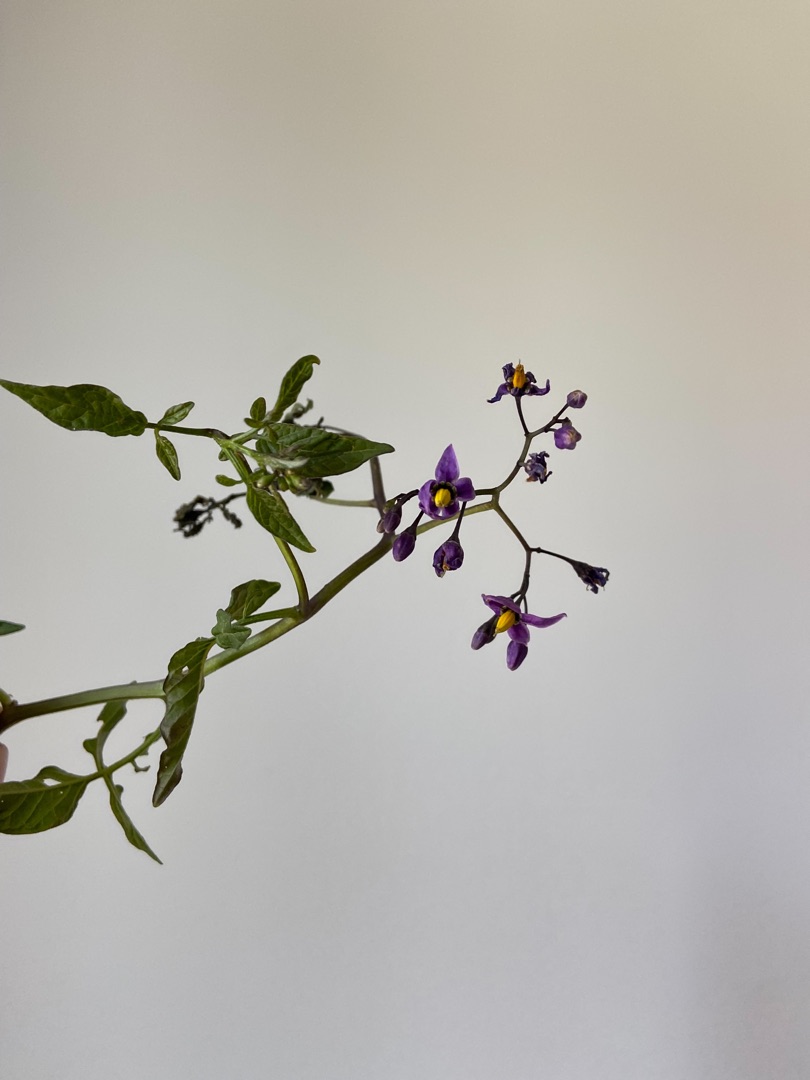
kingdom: Plantae
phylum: Tracheophyta
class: Magnoliopsida
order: Solanales
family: Solanaceae
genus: Solanum
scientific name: Solanum dulcamara
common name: Bittersød natskygge
